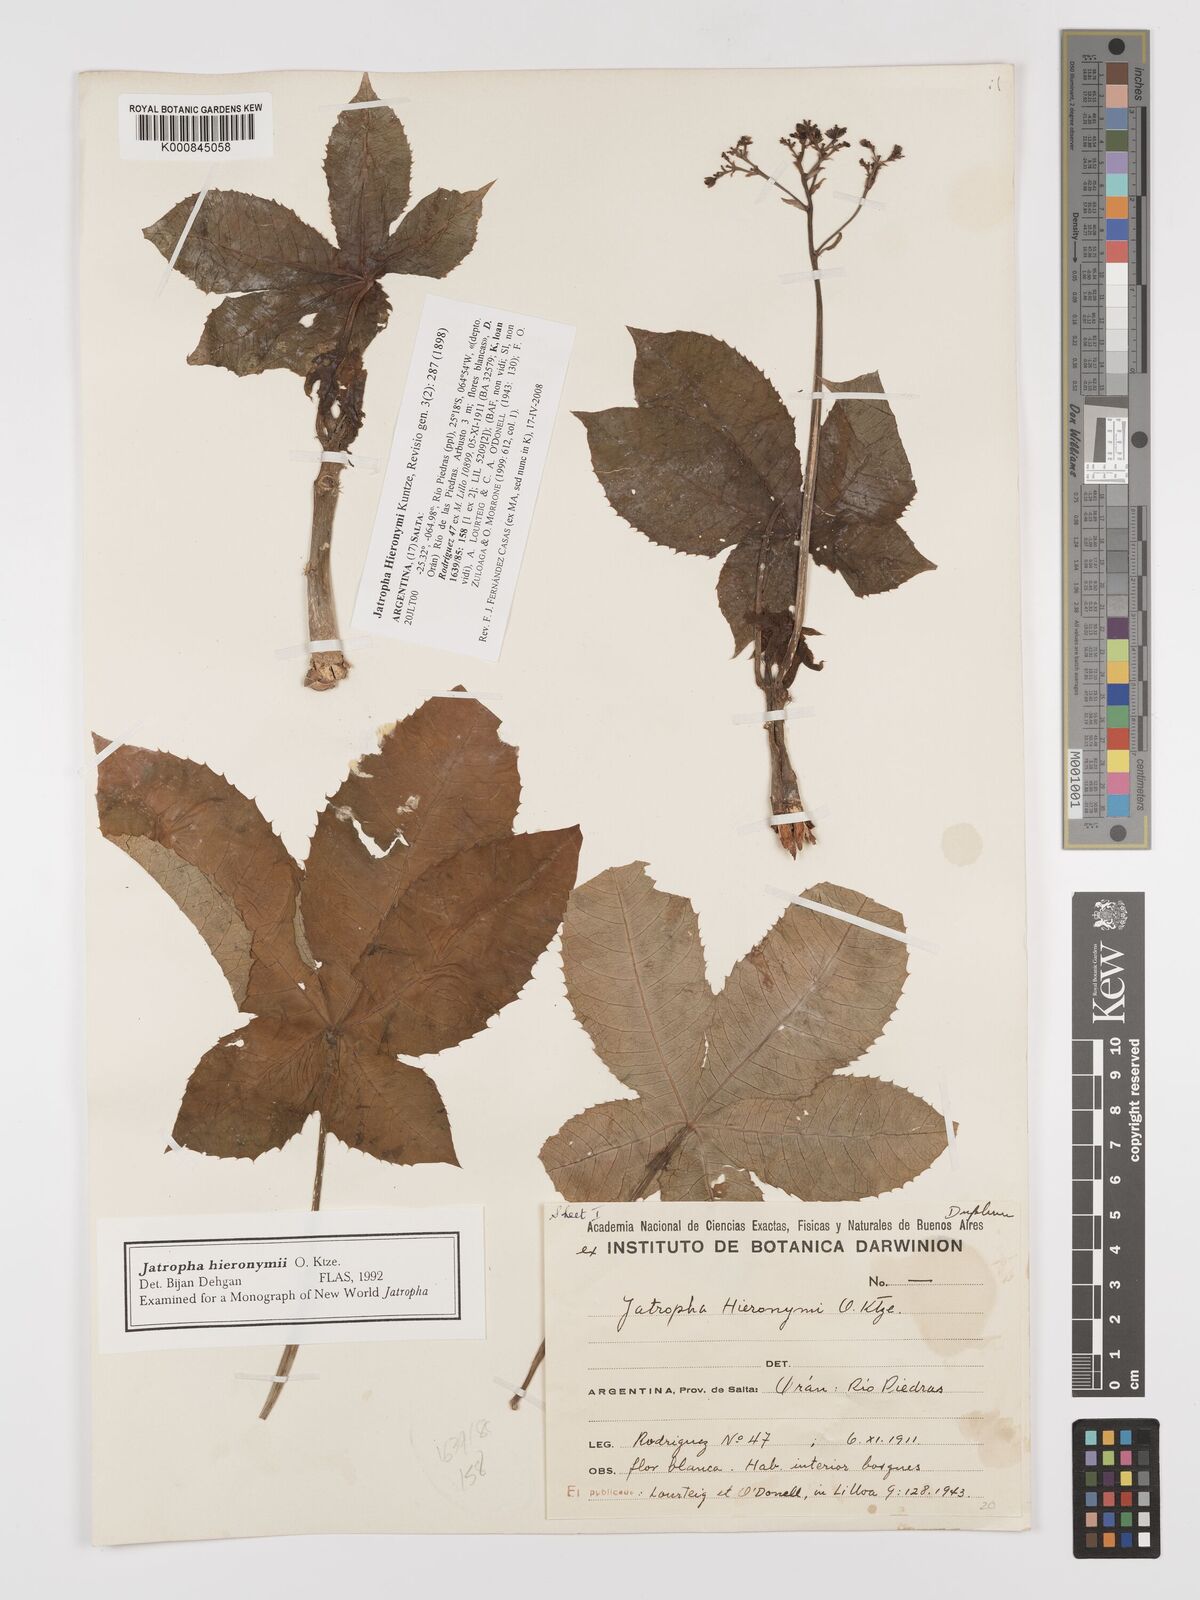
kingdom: Plantae
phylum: Tracheophyta
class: Magnoliopsida
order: Malpighiales
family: Euphorbiaceae
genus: Jatropha
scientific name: Jatropha hieronymi
